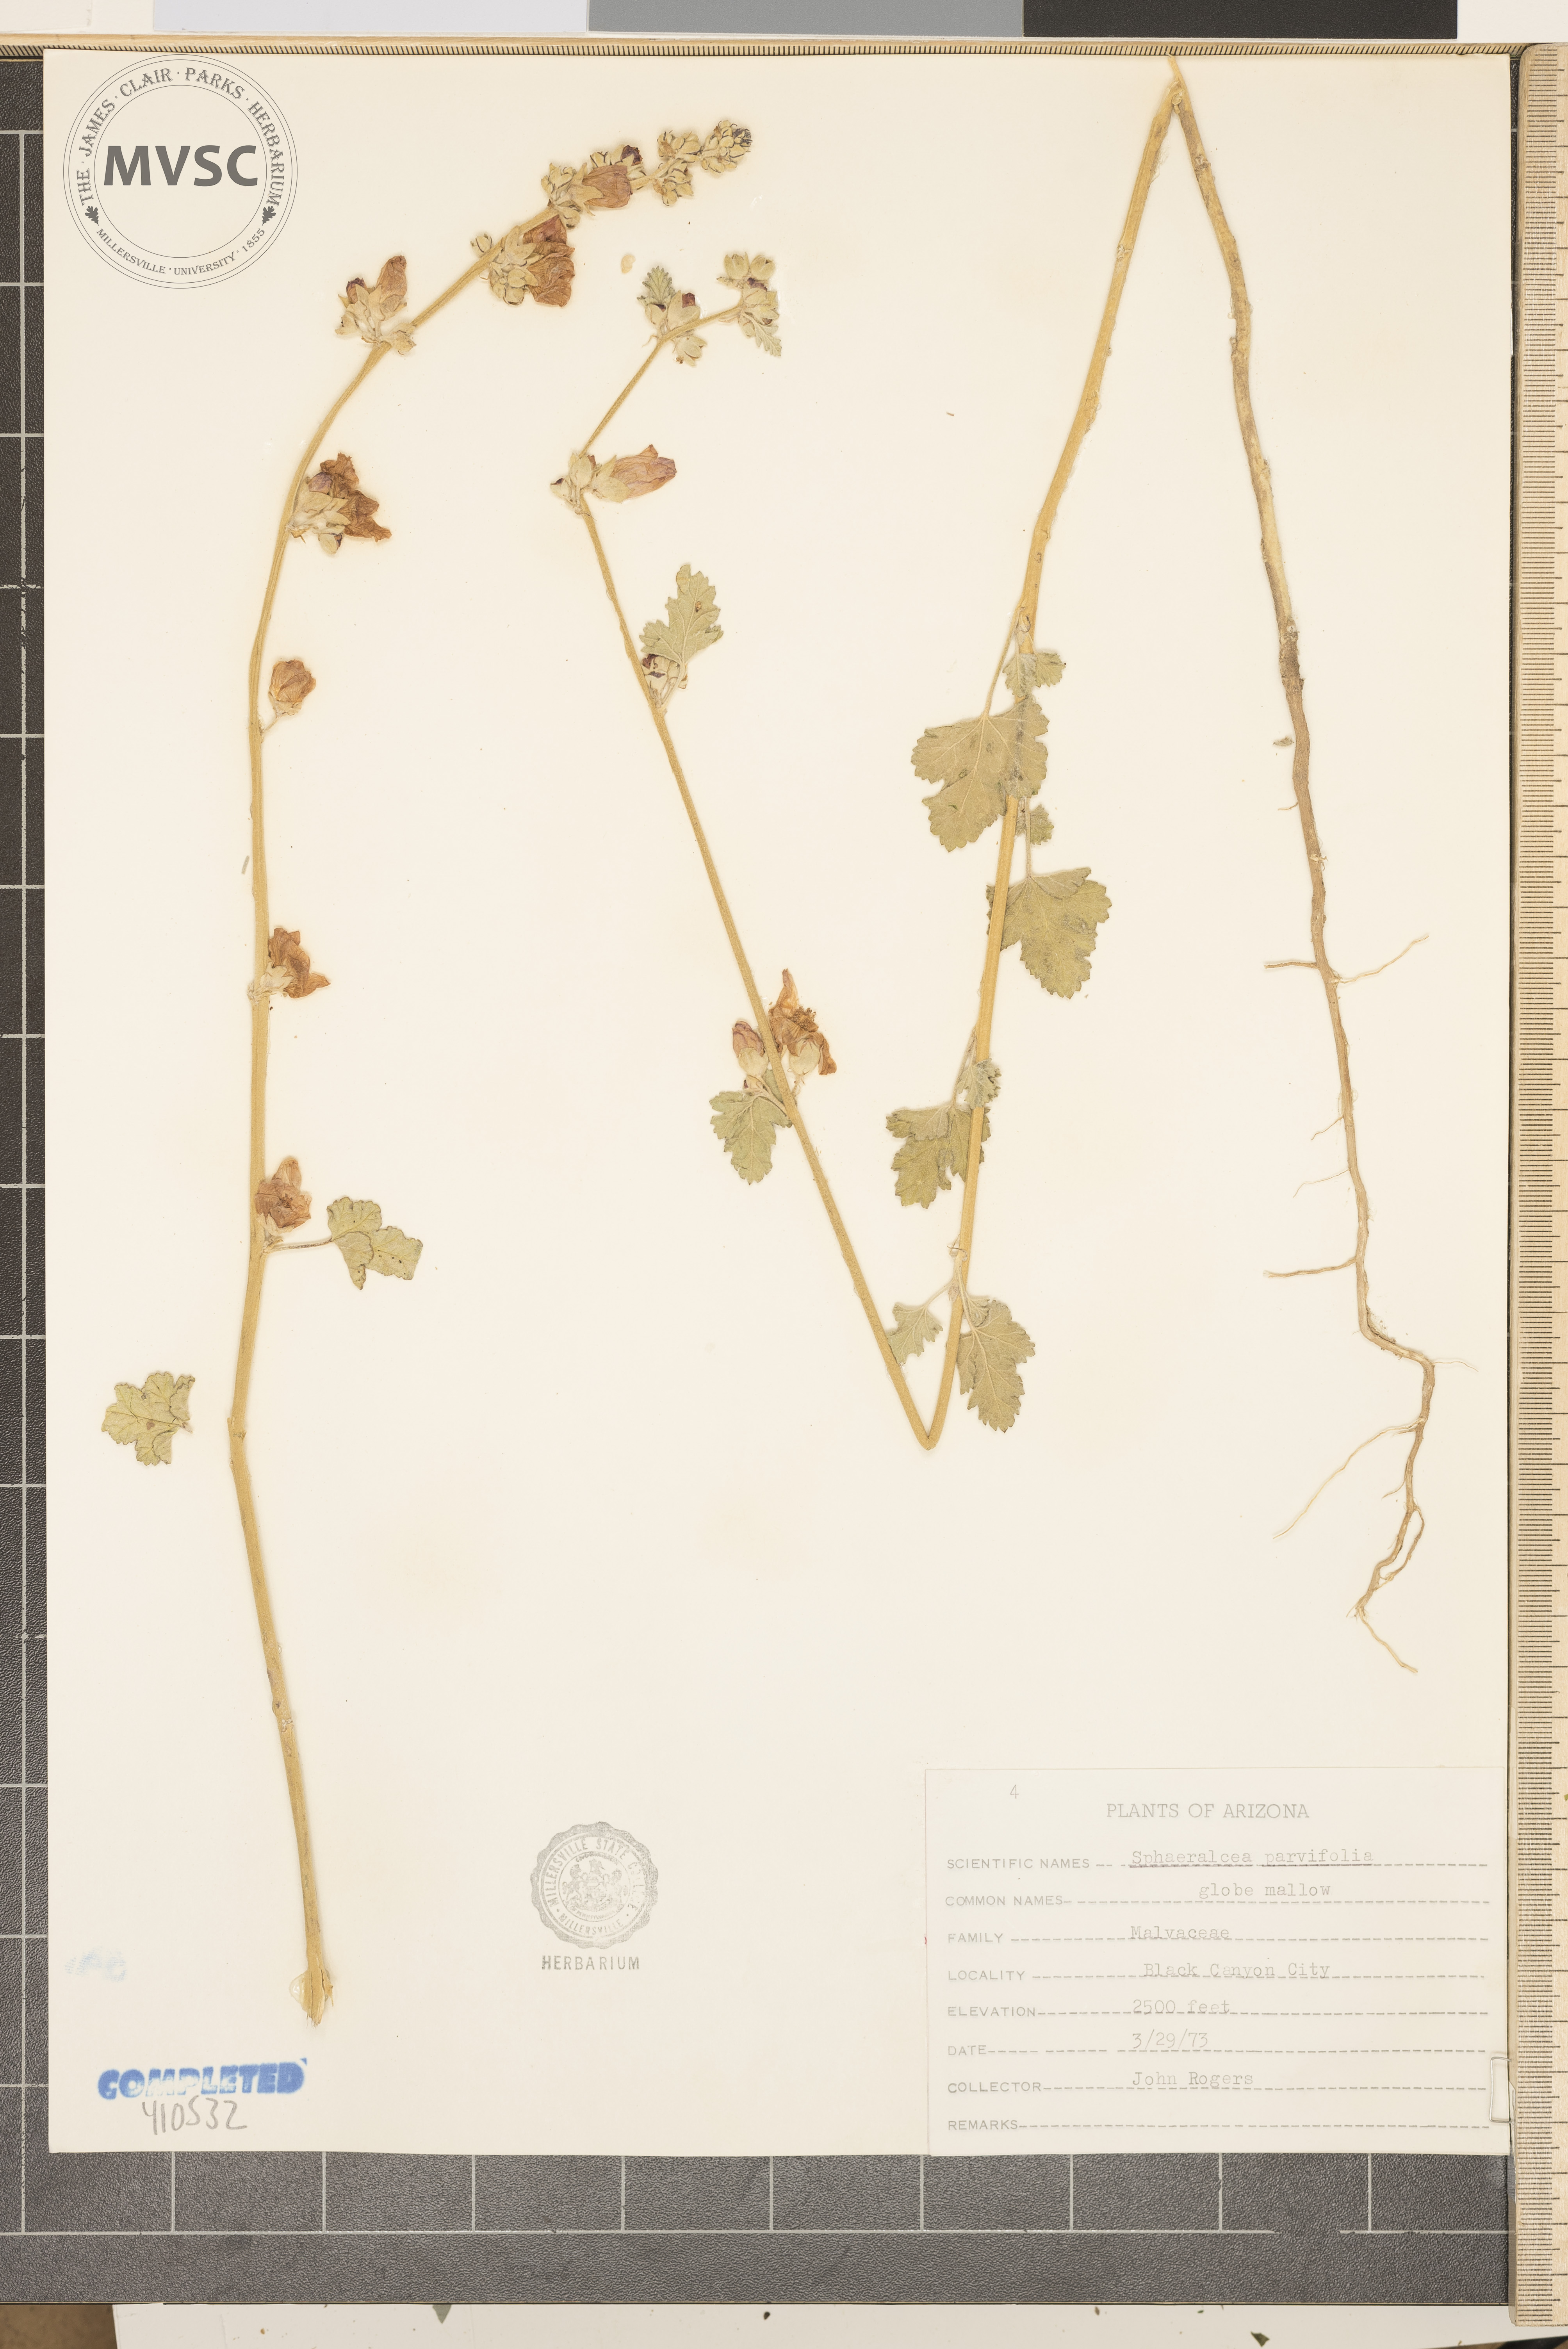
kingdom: Plantae
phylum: Tracheophyta
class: Magnoliopsida
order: Malvales
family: Malvaceae
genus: Sphaeralcea
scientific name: Sphaeralcea parvifolia
